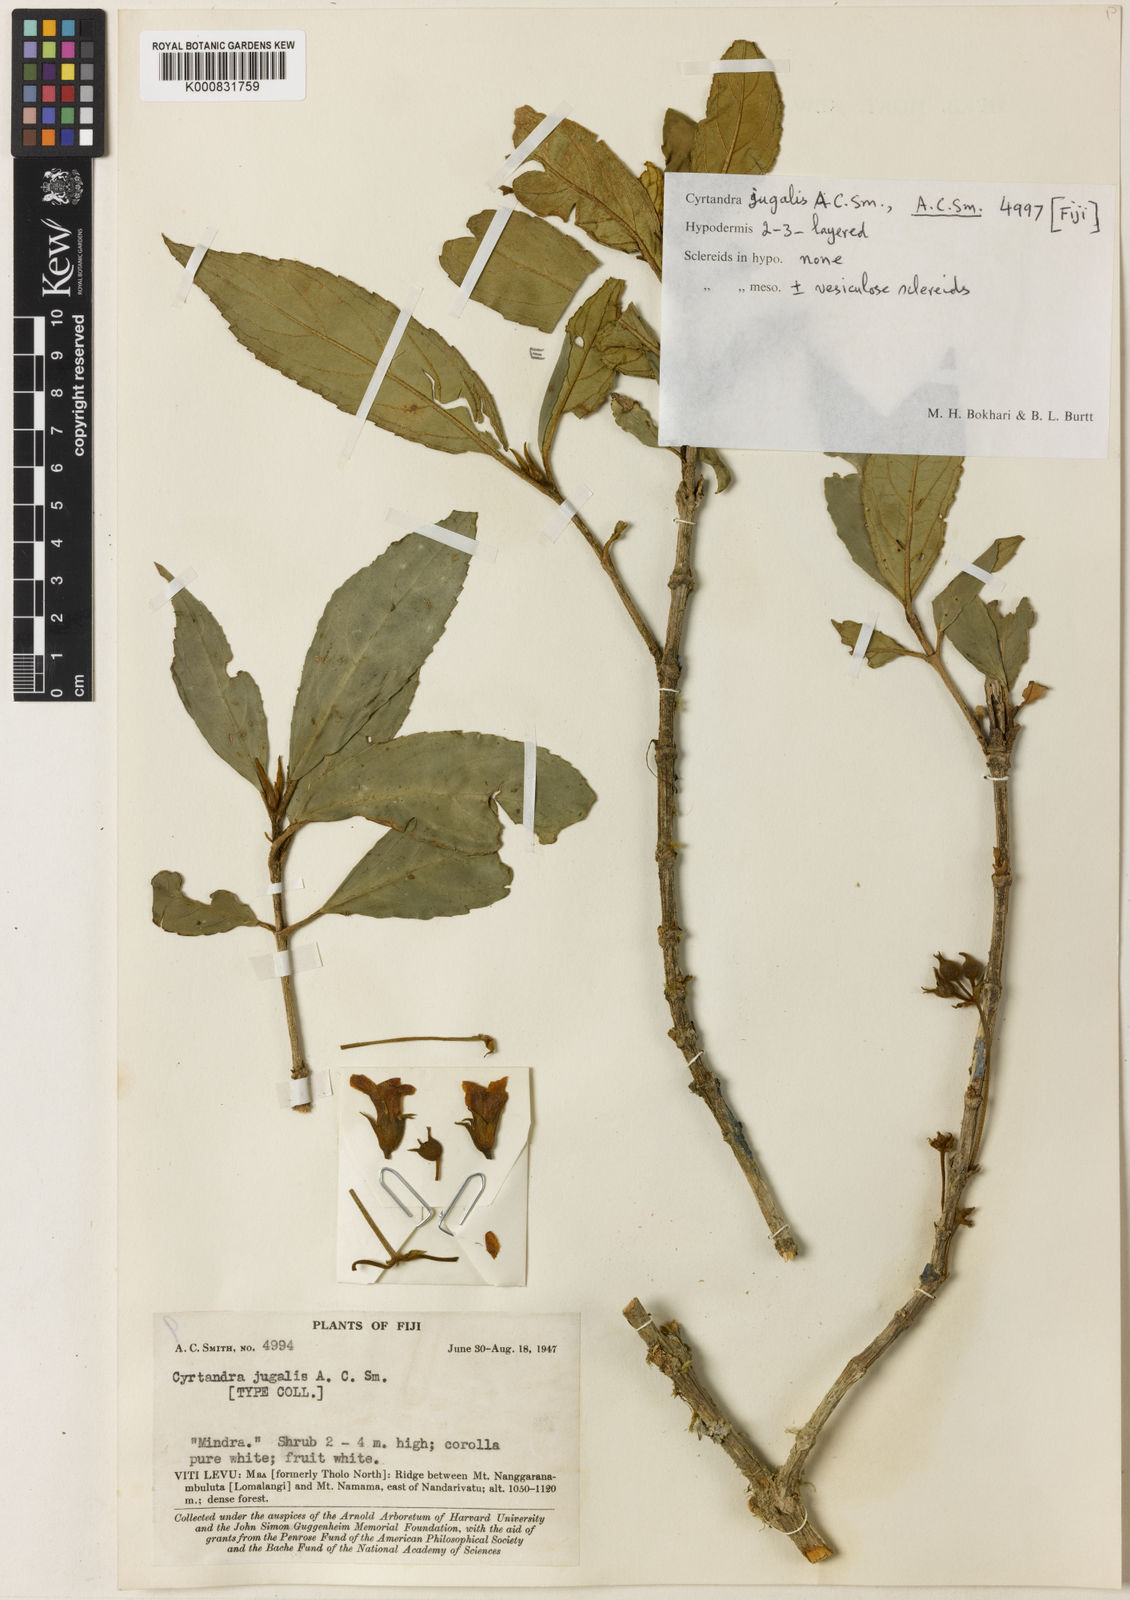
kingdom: Plantae
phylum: Tracheophyta
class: Magnoliopsida
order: Lamiales
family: Gesneriaceae
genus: Cyrtandra
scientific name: Cyrtandra jugalis
